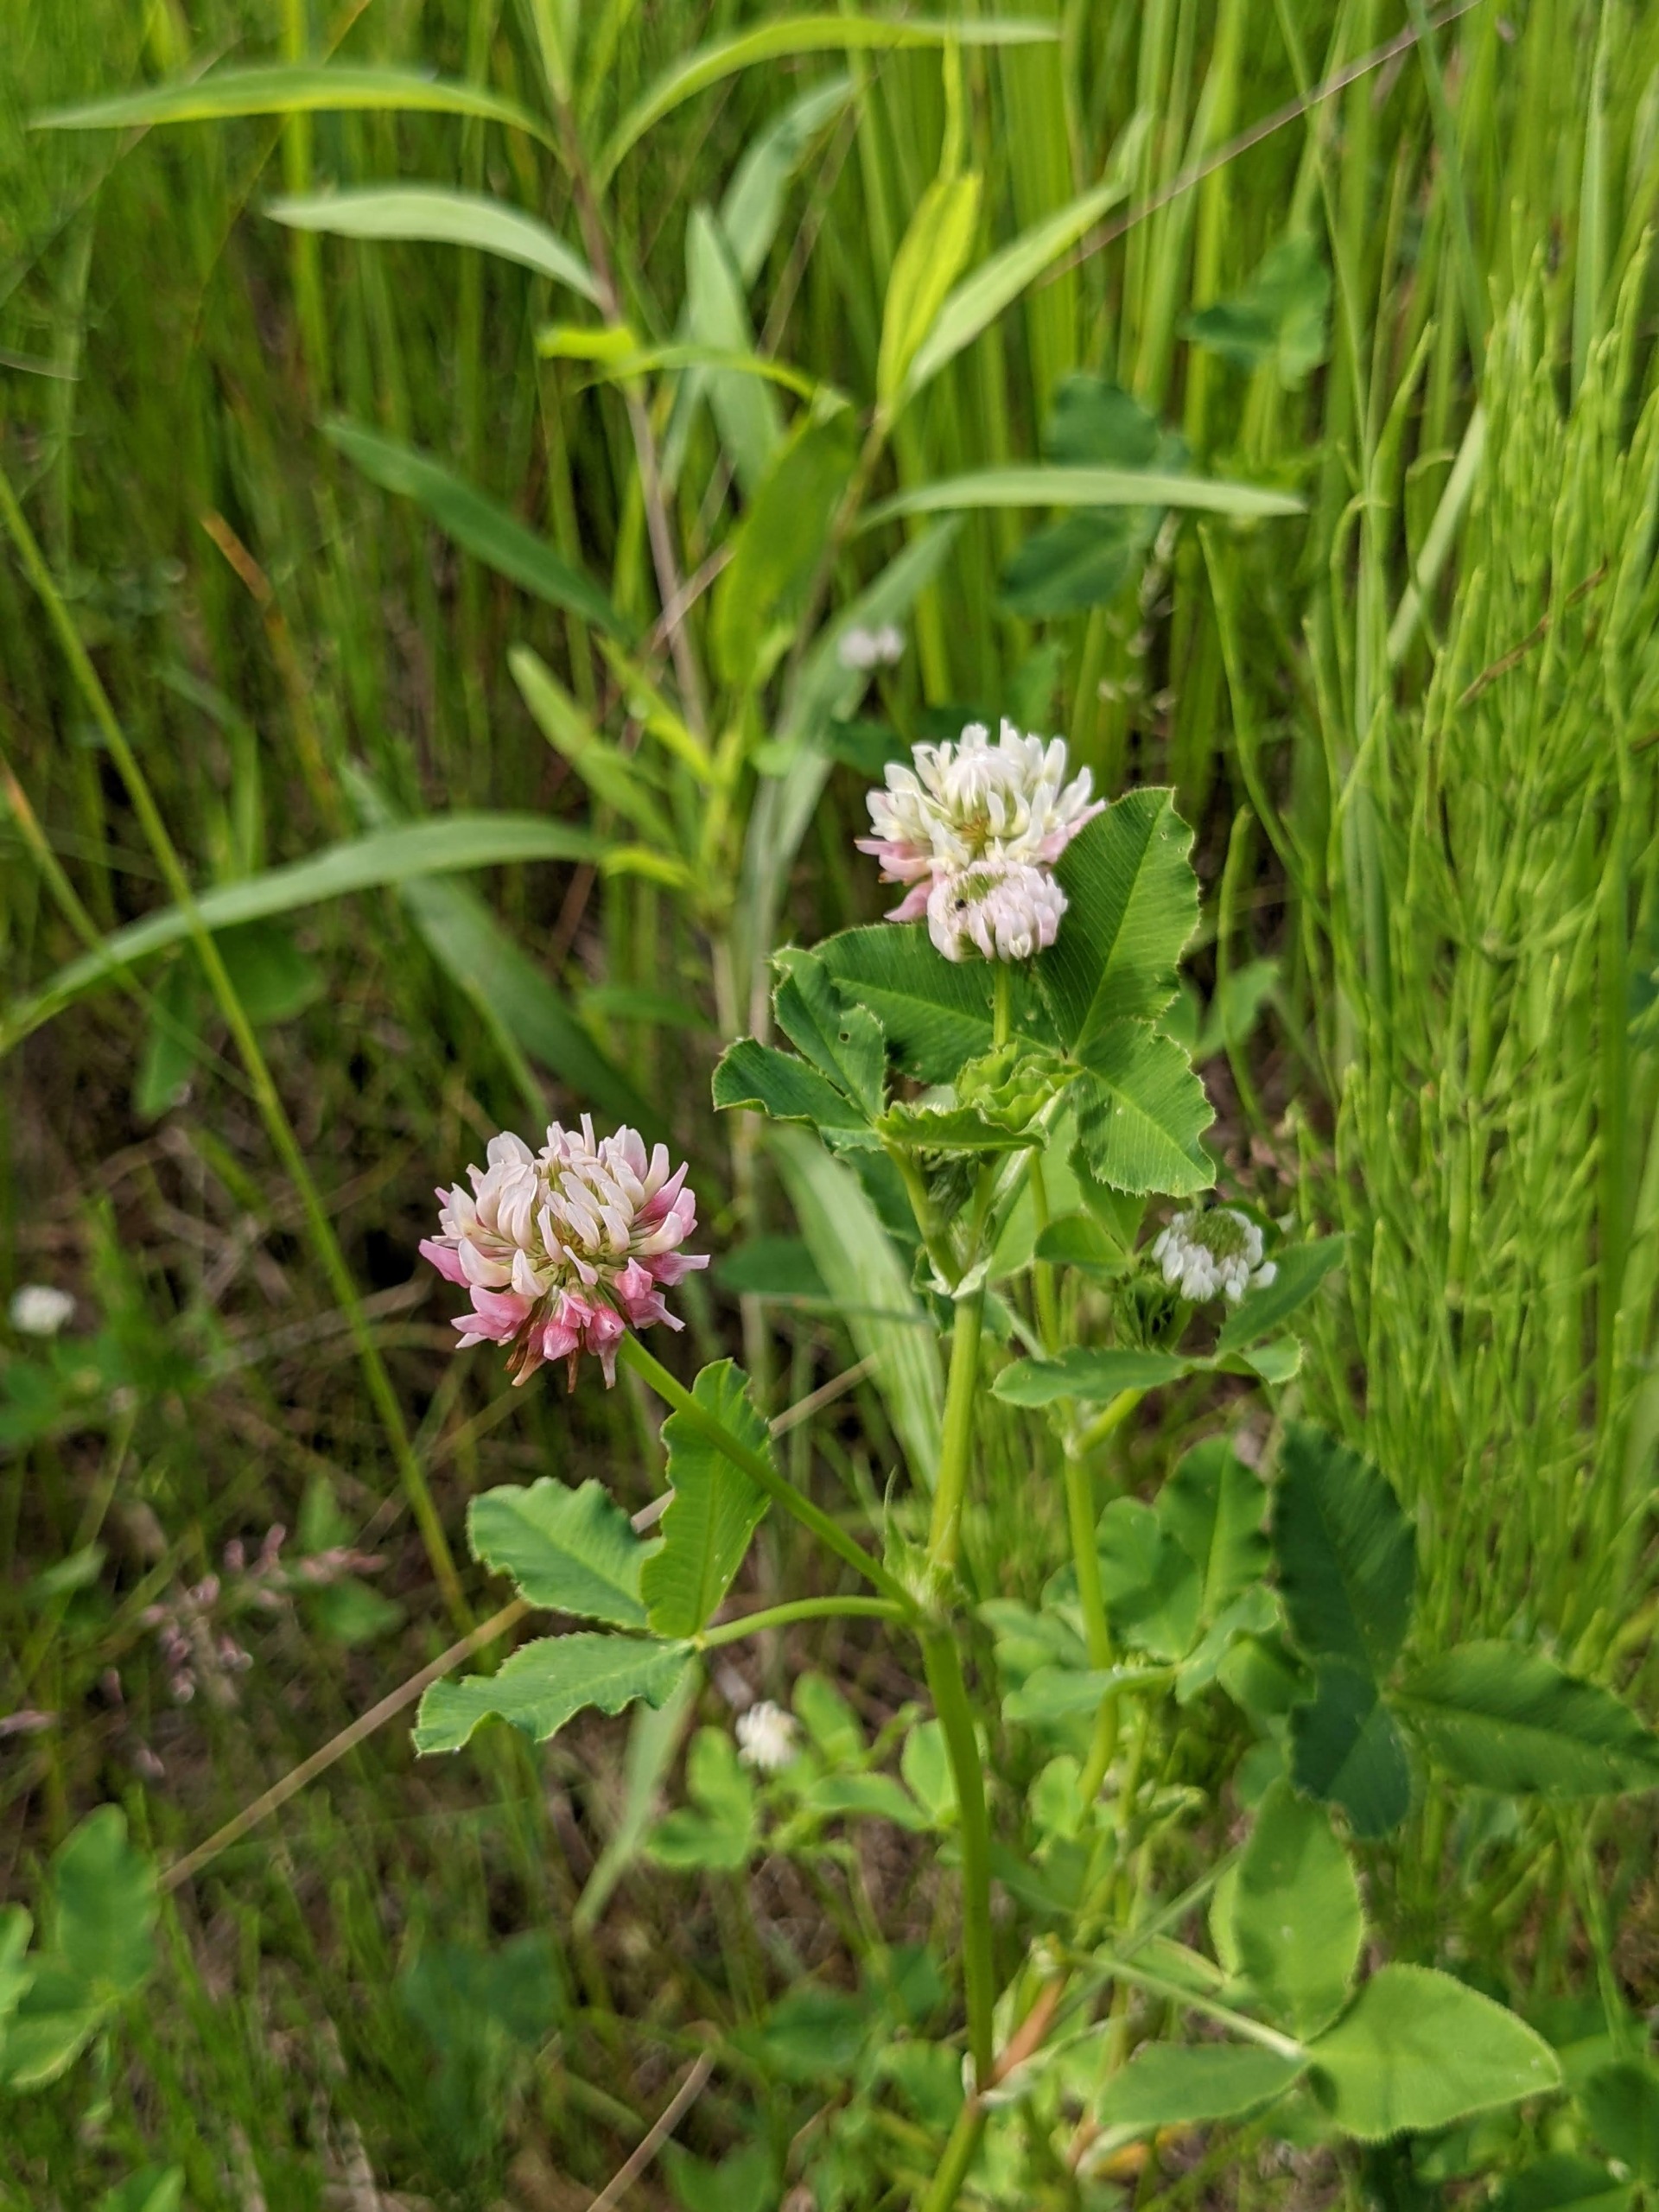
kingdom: Plantae
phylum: Tracheophyta
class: Magnoliopsida
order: Fabales
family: Fabaceae
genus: Trifolium
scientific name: Trifolium hybridum
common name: Alsike-kløver
